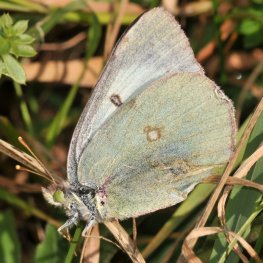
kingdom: Animalia
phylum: Arthropoda
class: Insecta
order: Lepidoptera
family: Pieridae
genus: Colias
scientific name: Colias philodice
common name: Clouded Sulphur
